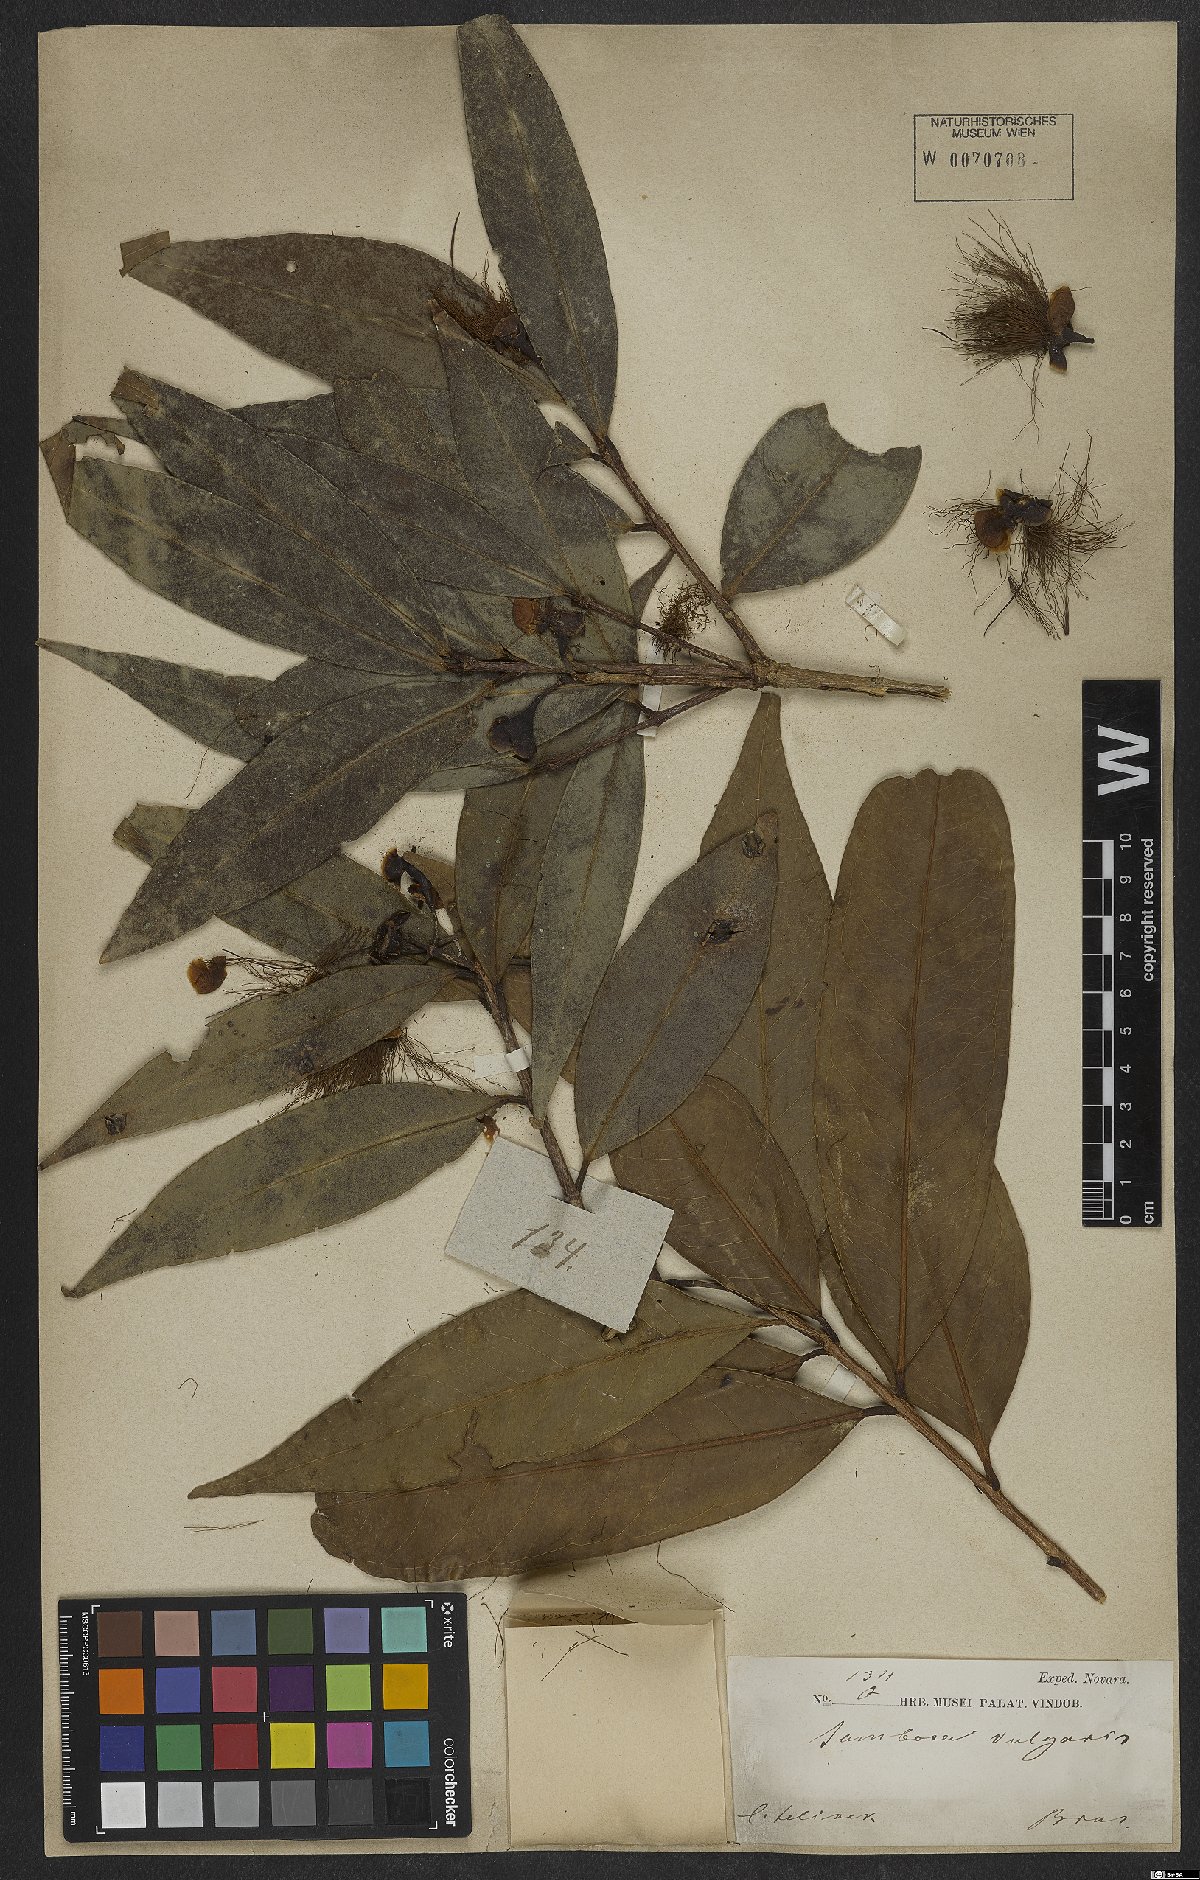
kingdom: Plantae
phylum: Tracheophyta
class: Magnoliopsida
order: Myrtales
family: Myrtaceae
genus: Syzygium
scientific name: Syzygium jambos
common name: Malabar plum
